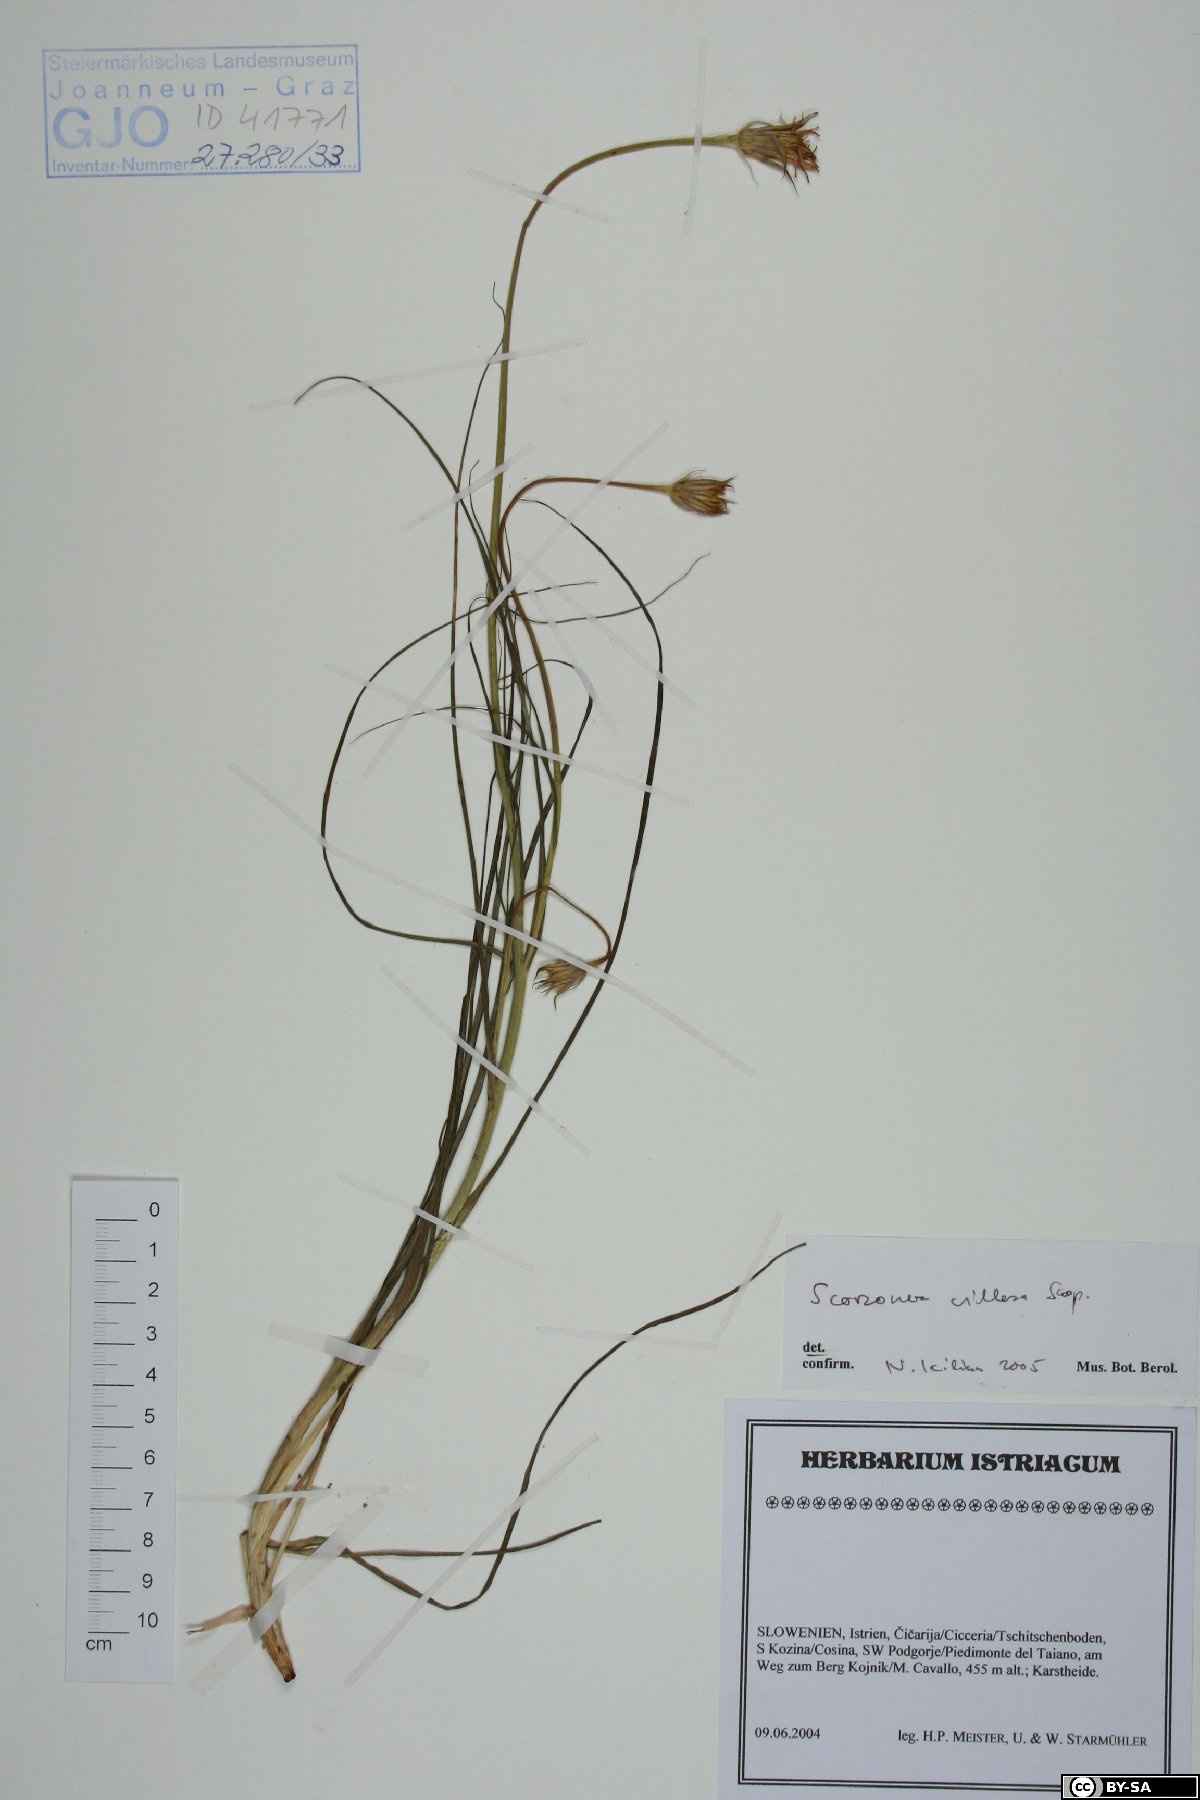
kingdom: Plantae
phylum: Tracheophyta
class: Magnoliopsida
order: Asterales
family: Asteraceae
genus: Gelasia
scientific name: Gelasia villosa
